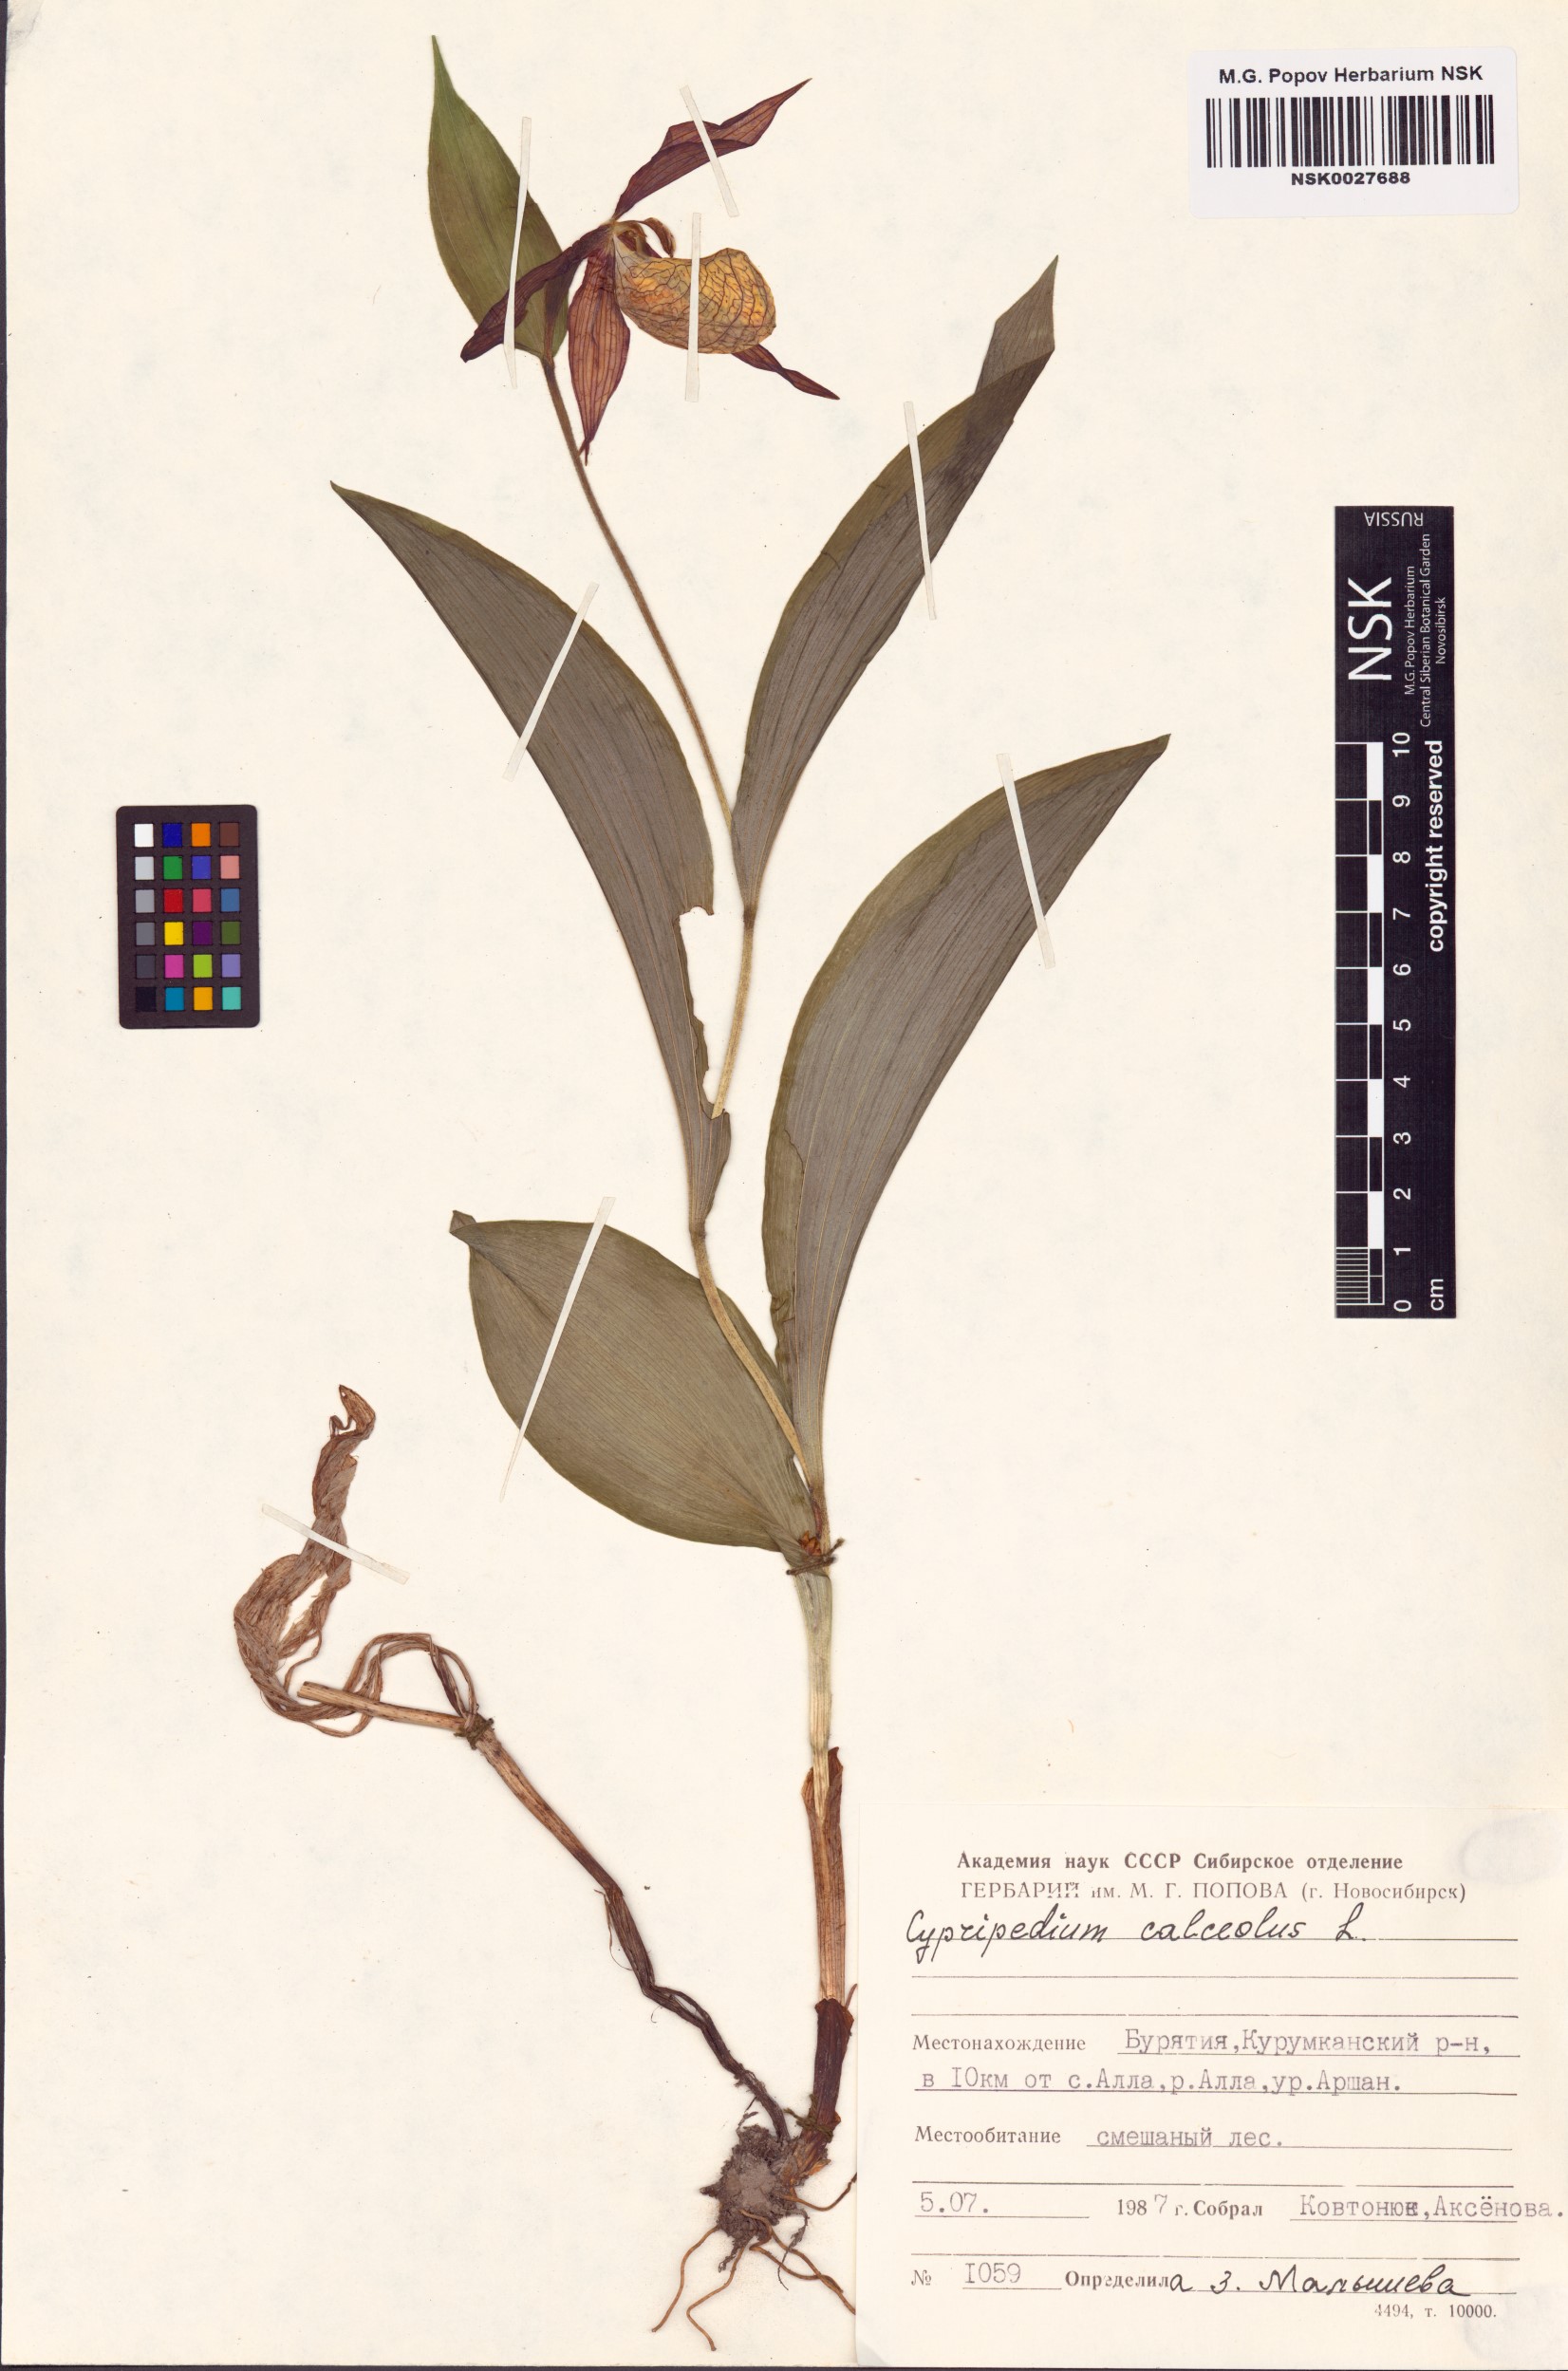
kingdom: Plantae
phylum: Tracheophyta
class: Liliopsida
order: Asparagales
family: Orchidaceae
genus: Cypripedium
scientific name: Cypripedium calceolus
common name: Lady's-slipper
